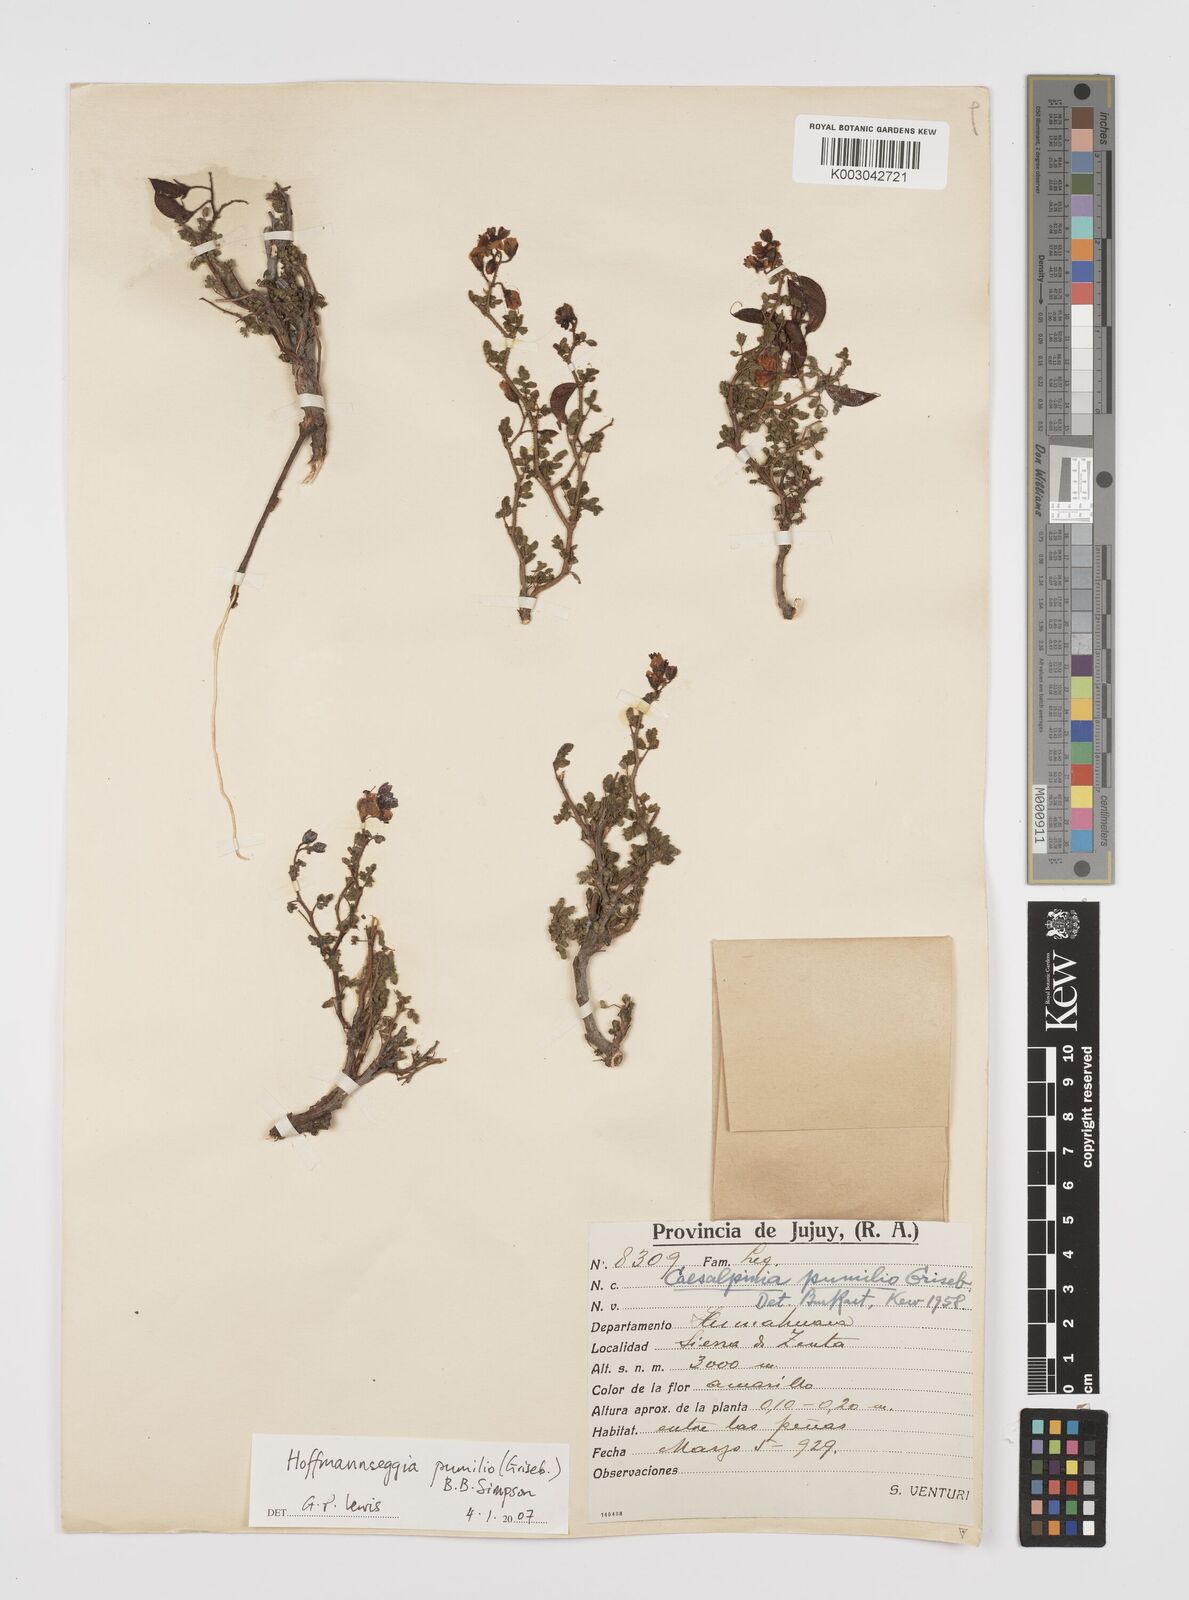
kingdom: Plantae
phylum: Tracheophyta
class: Magnoliopsida
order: Fabales
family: Fabaceae
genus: Hoffmannseggia
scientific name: Hoffmannseggia pumilio
